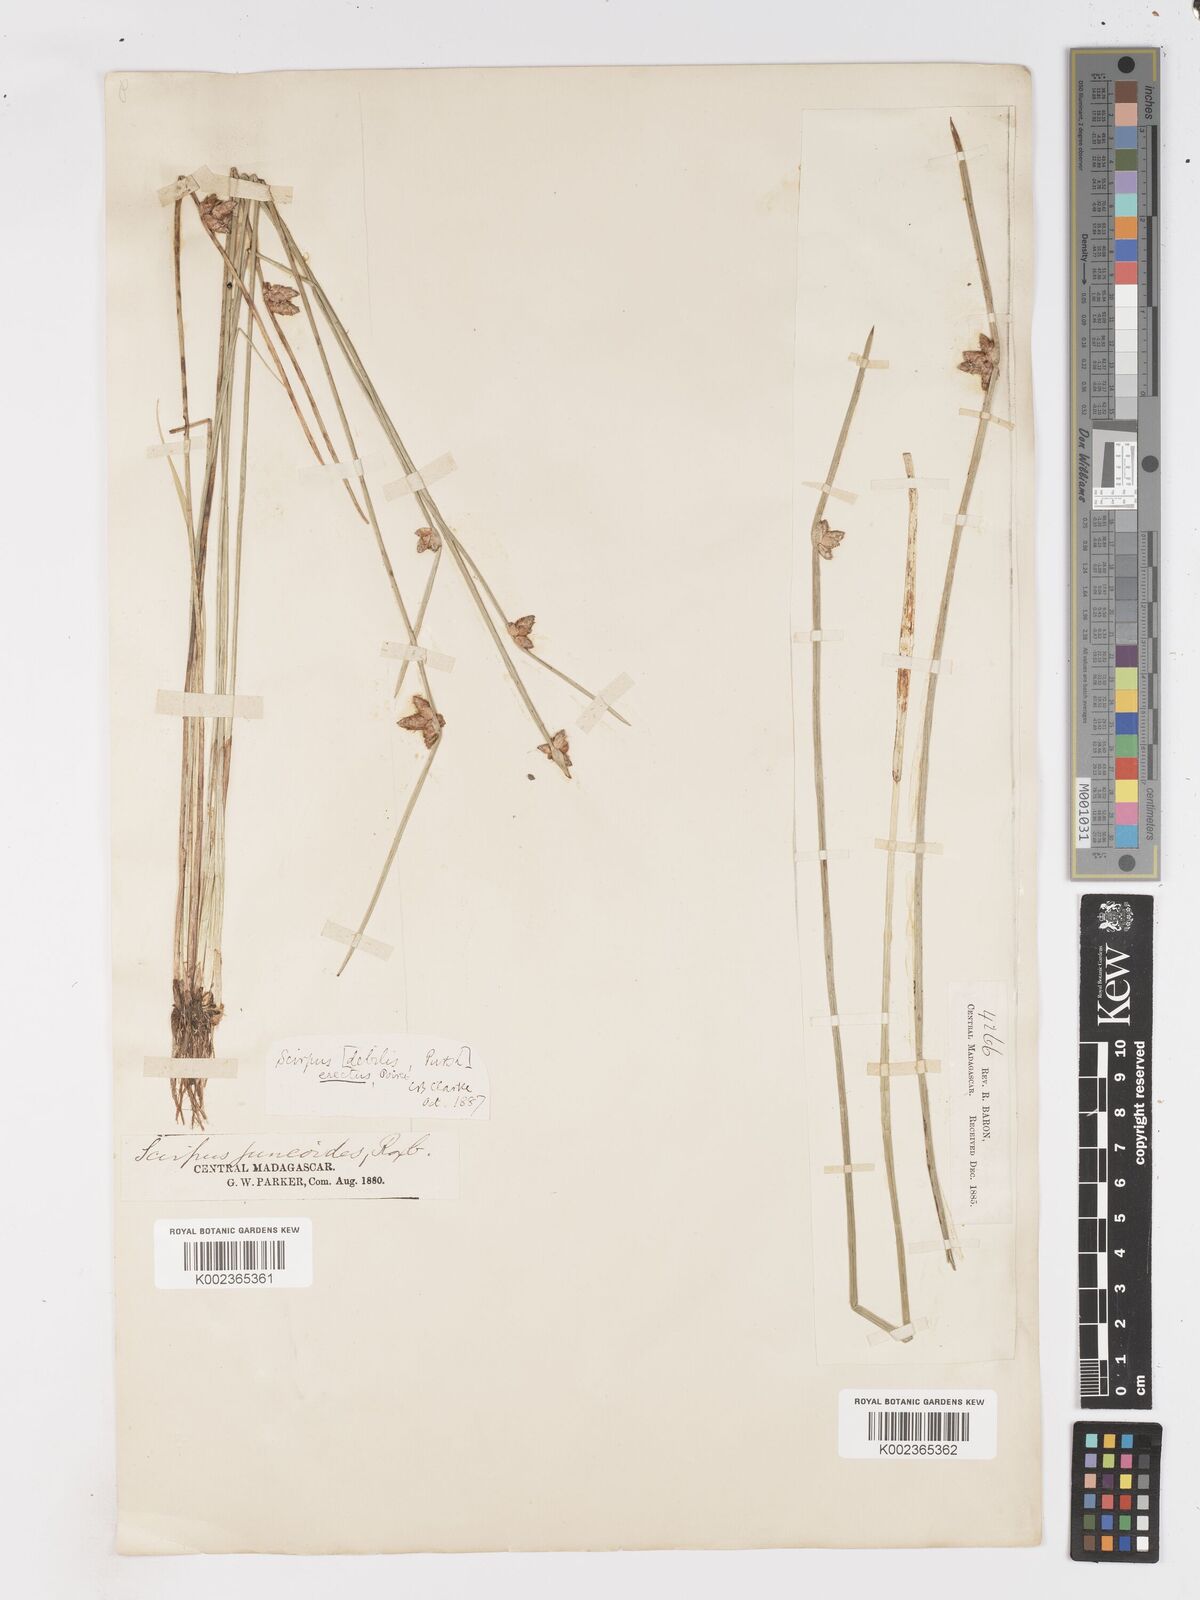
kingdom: Plantae
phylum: Tracheophyta
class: Liliopsida
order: Poales
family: Cyperaceae
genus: Schoenoplectiella
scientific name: Schoenoplectiella juncoides
